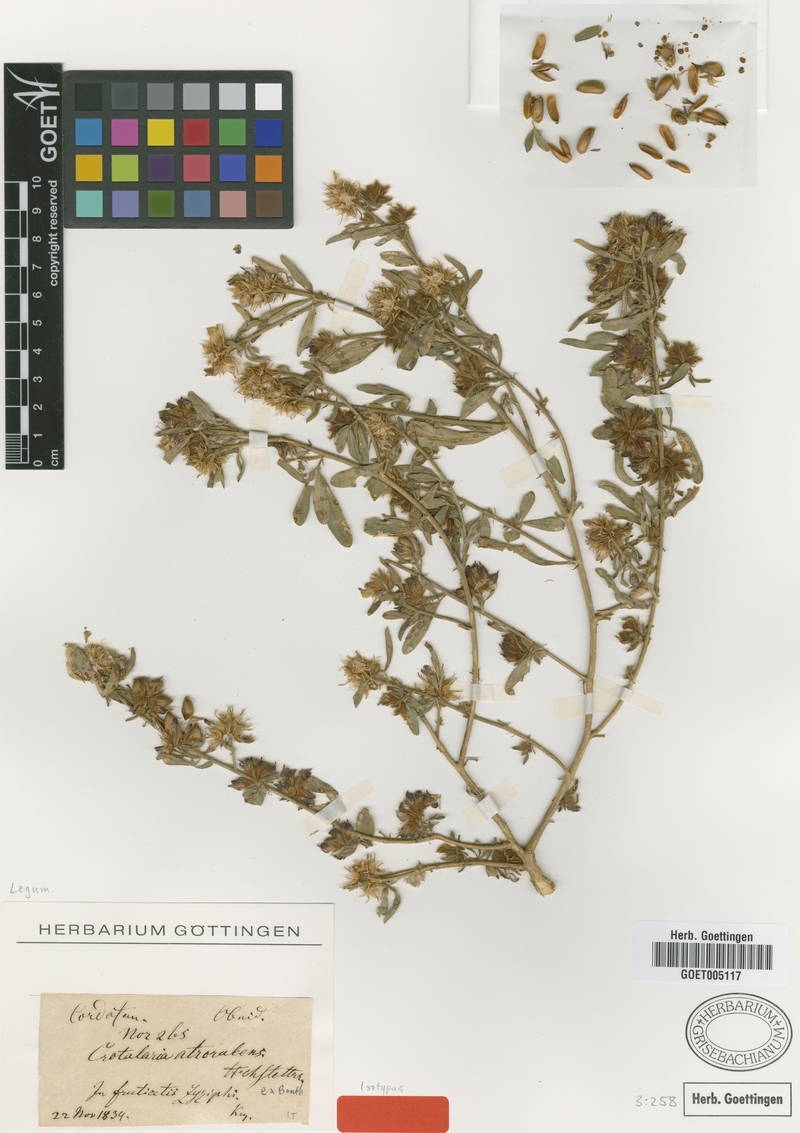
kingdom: Plantae
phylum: Tracheophyta
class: Magnoliopsida
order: Fabales
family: Fabaceae
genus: Crotalaria
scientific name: Crotalaria atrorubens
